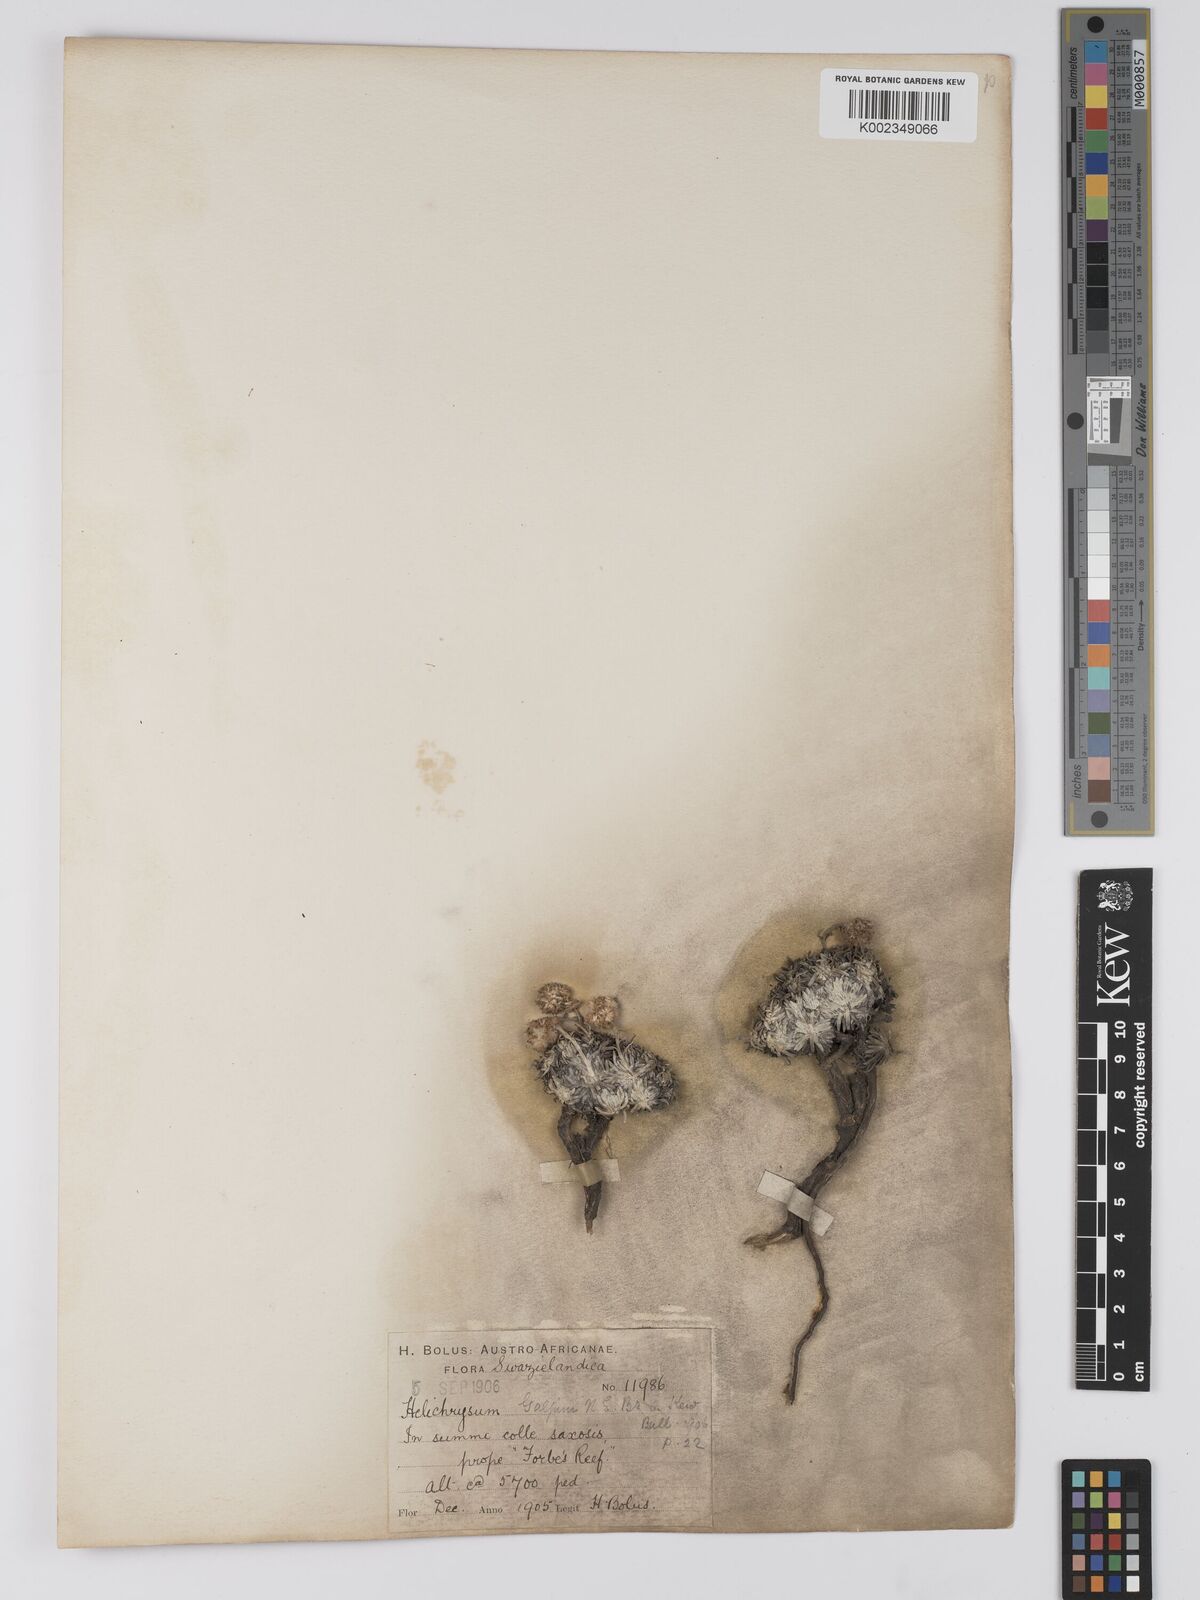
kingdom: Plantae
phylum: Tracheophyta
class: Magnoliopsida
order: Asterales
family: Asteraceae
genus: Helichrysum
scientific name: Helichrysum galpinii
